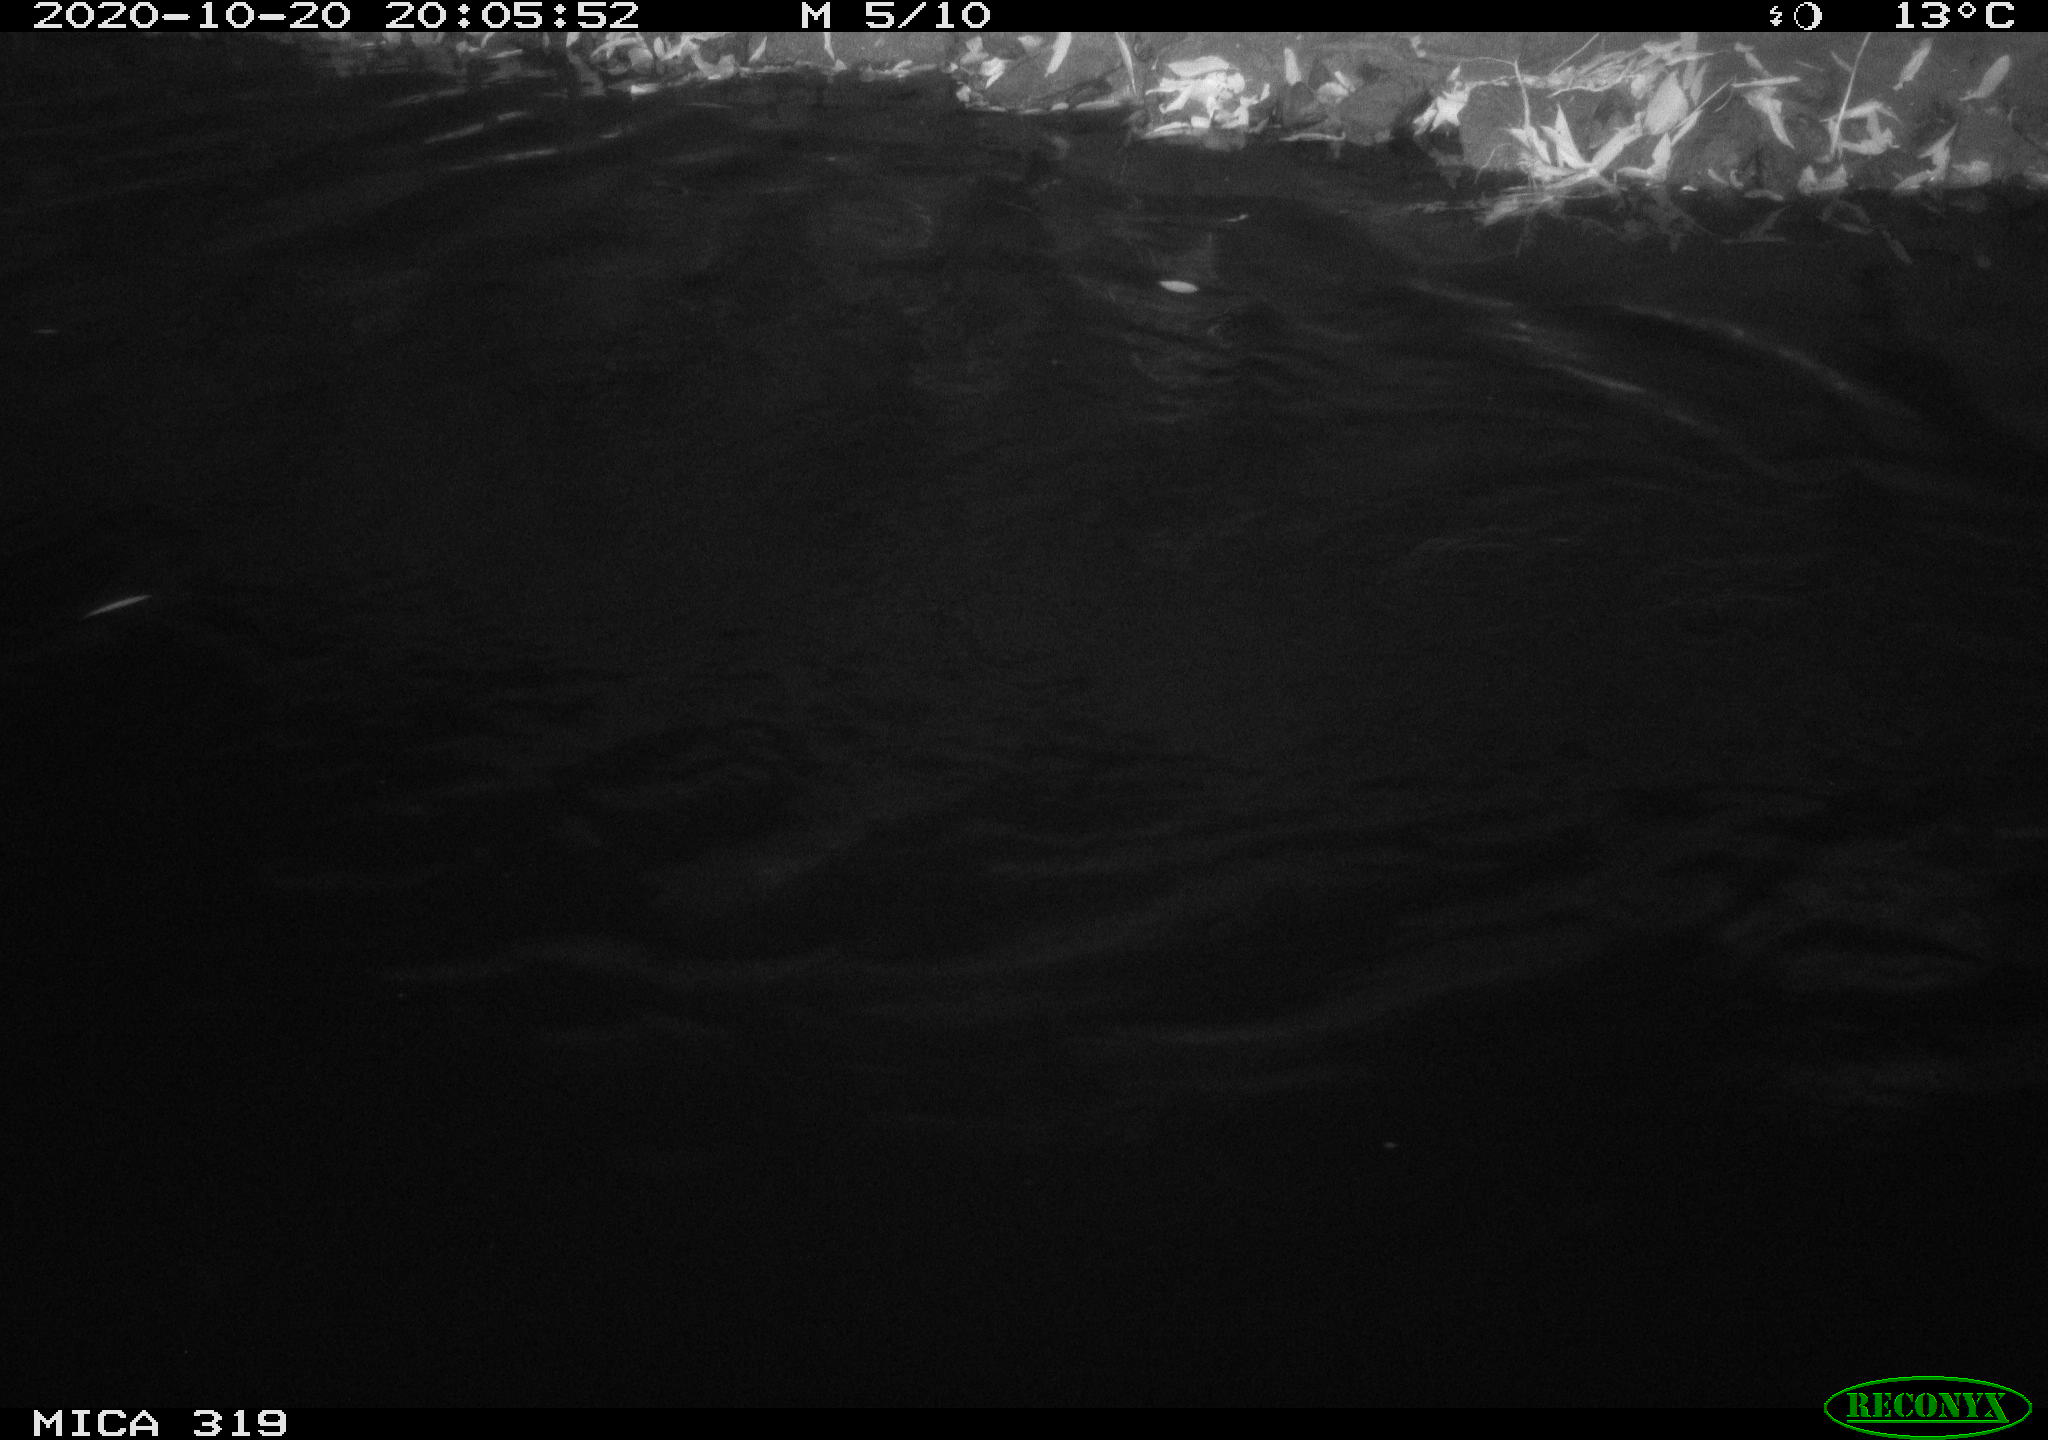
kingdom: Animalia
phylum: Chordata
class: Aves
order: Anseriformes
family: Anatidae
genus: Anas
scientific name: Anas platyrhynchos
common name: Mallard
